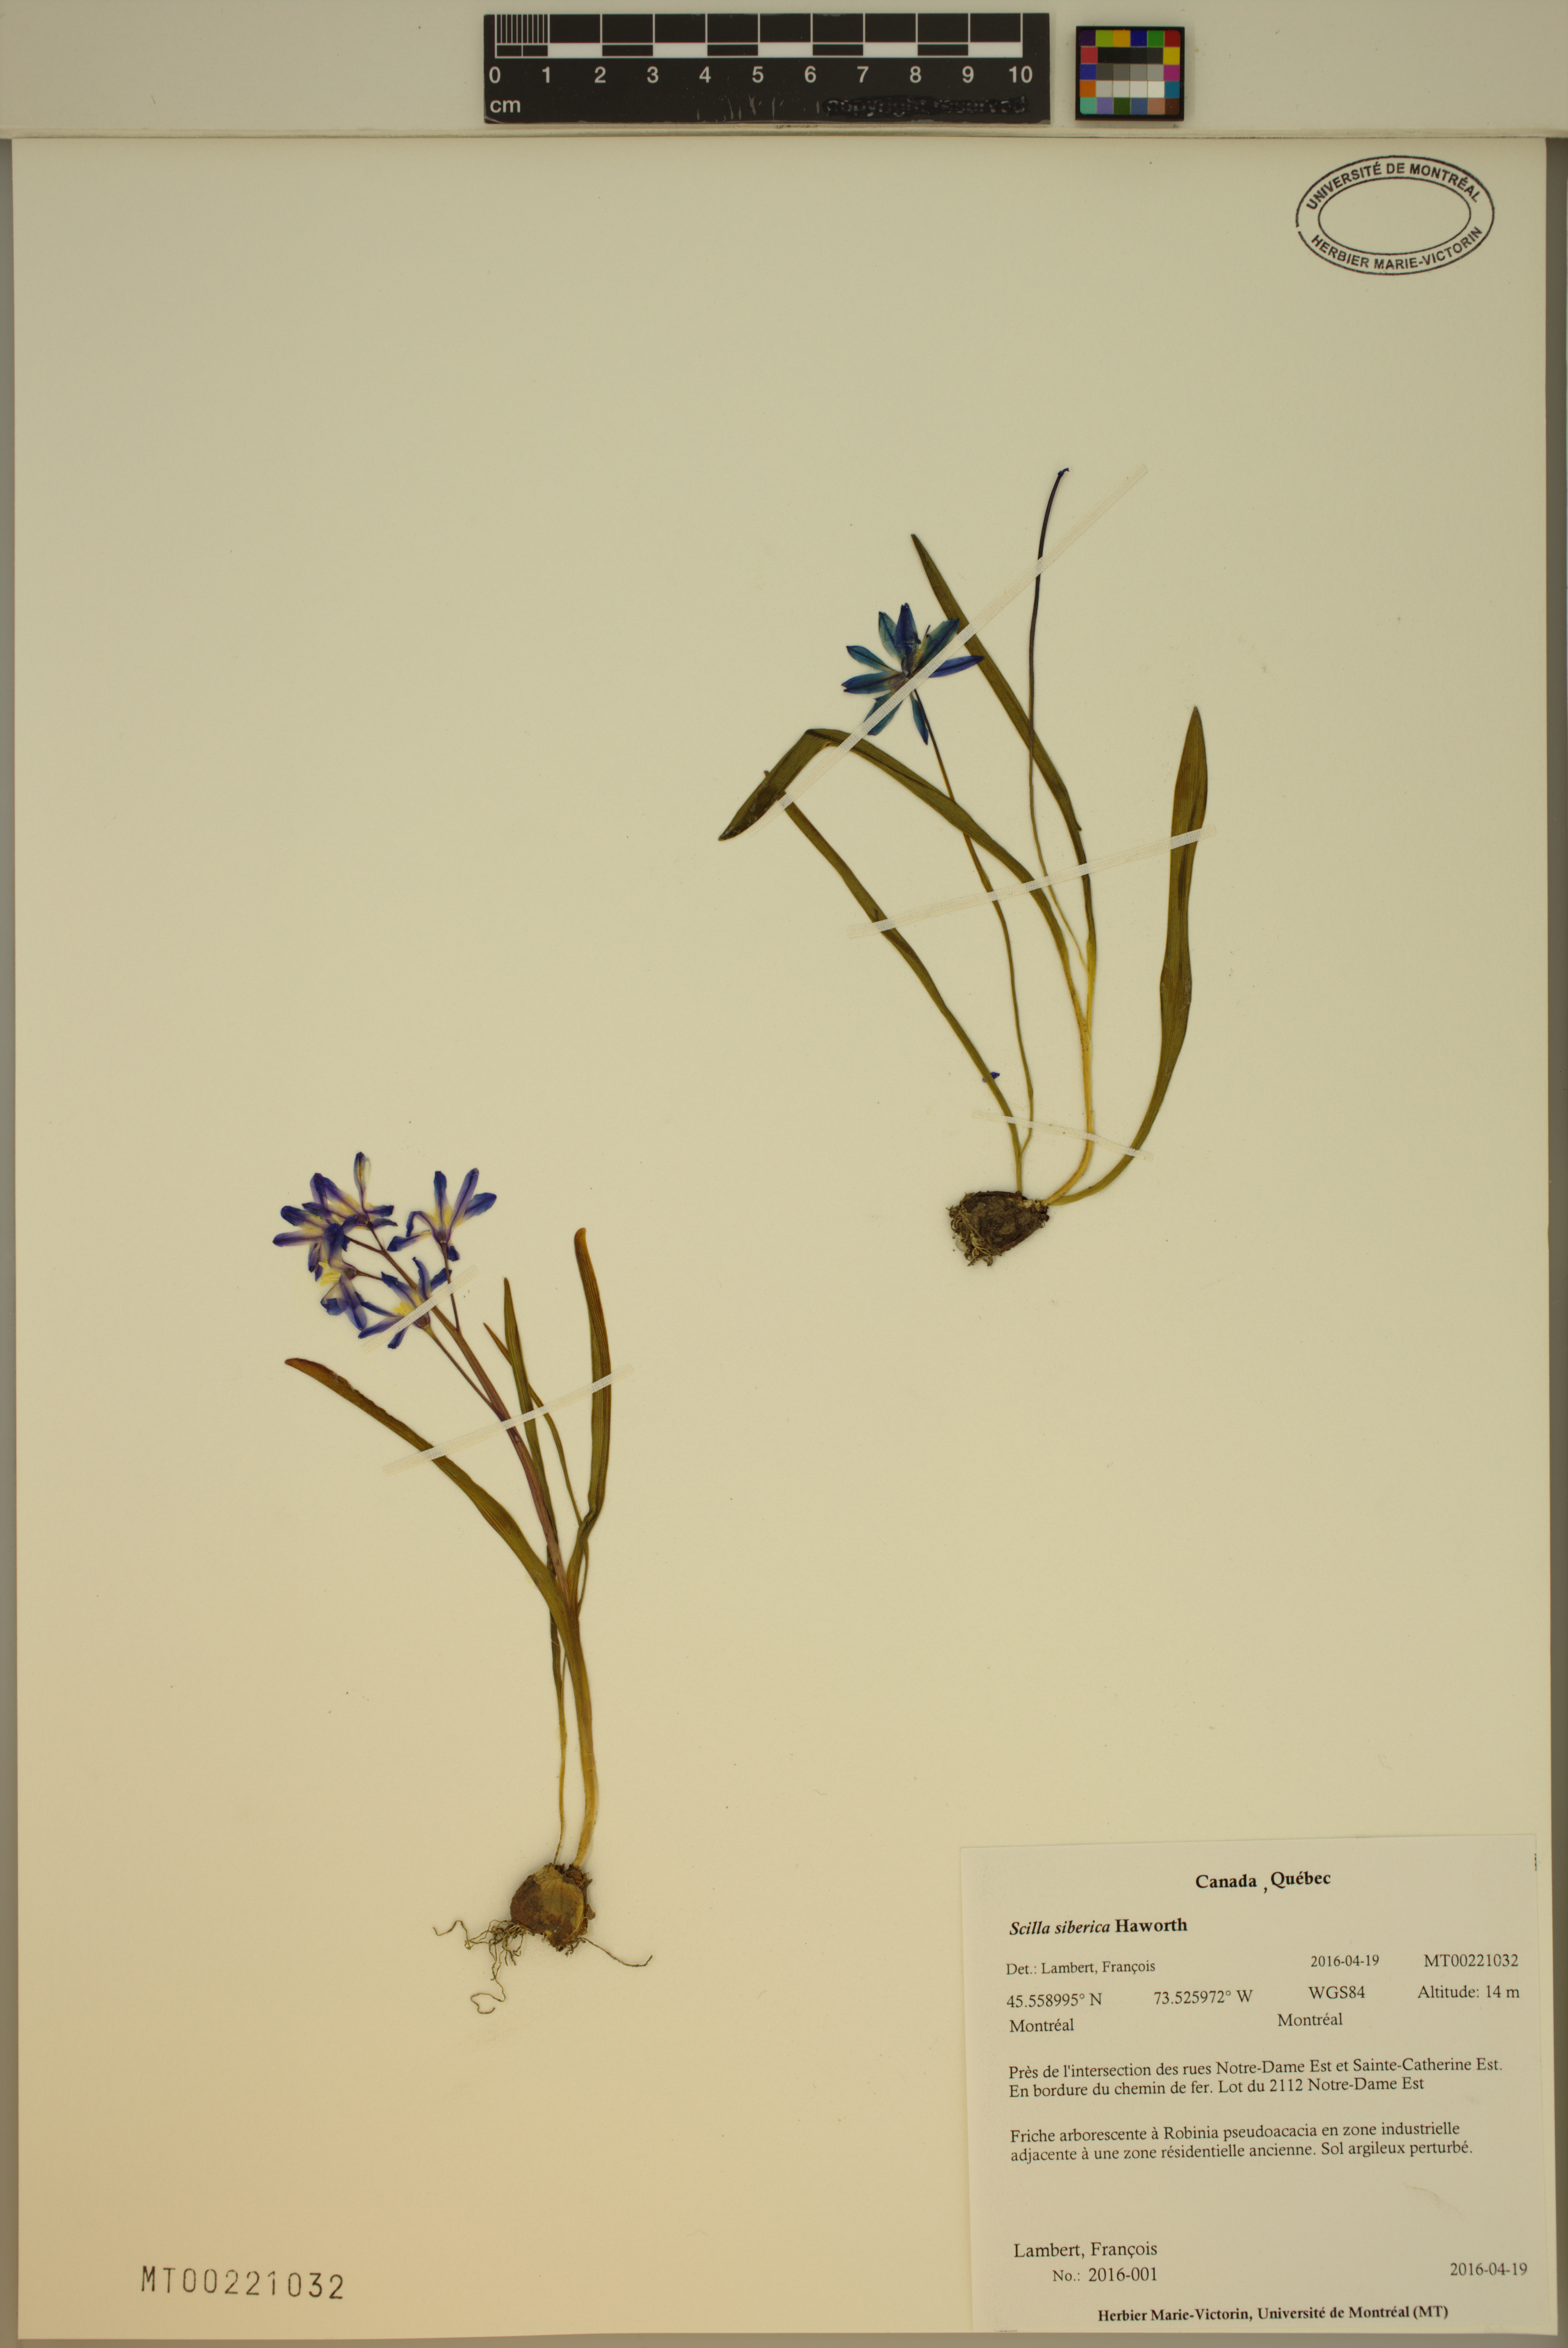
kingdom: Plantae
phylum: Tracheophyta
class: Liliopsida
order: Asparagales
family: Asparagaceae
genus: Scilla
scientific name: Scilla siberica
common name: Siberian squill
